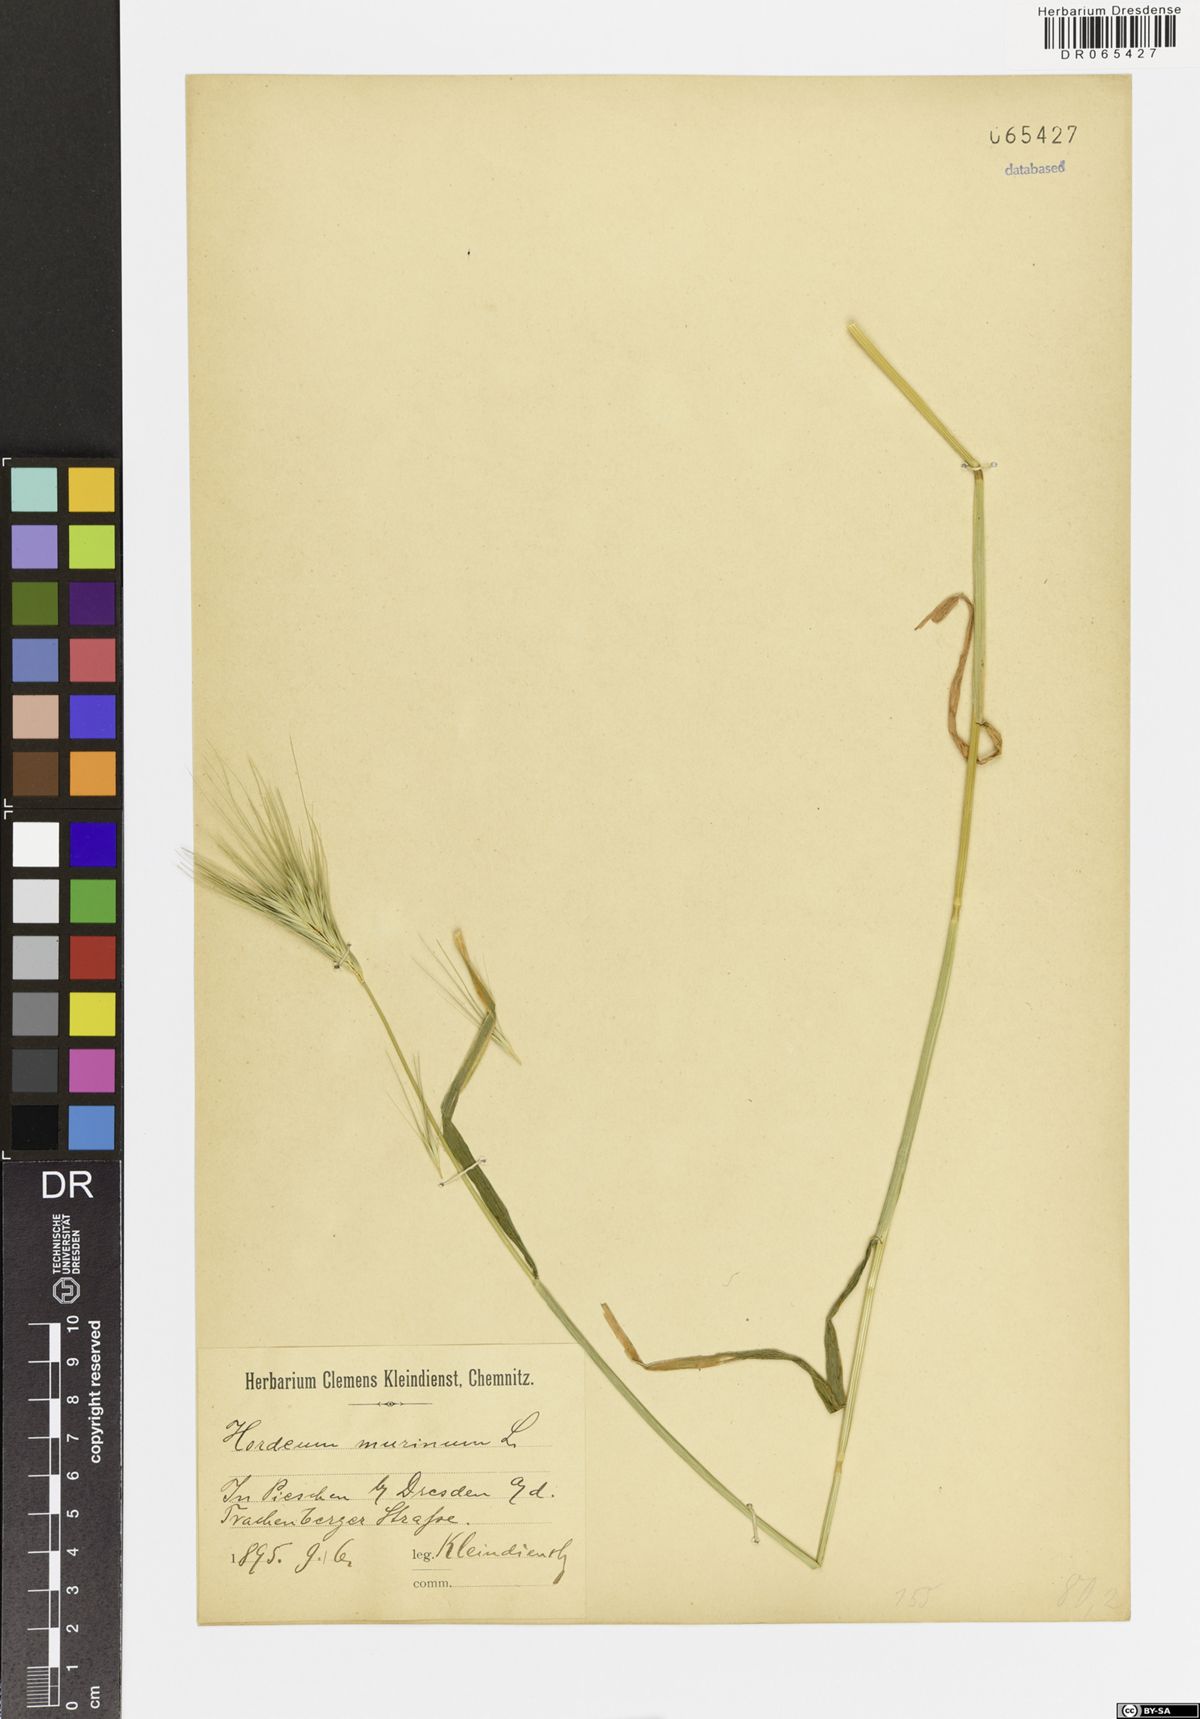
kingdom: Plantae
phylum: Tracheophyta
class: Liliopsida
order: Poales
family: Poaceae
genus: Hordeum
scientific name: Hordeum murinum
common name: Wall barley
